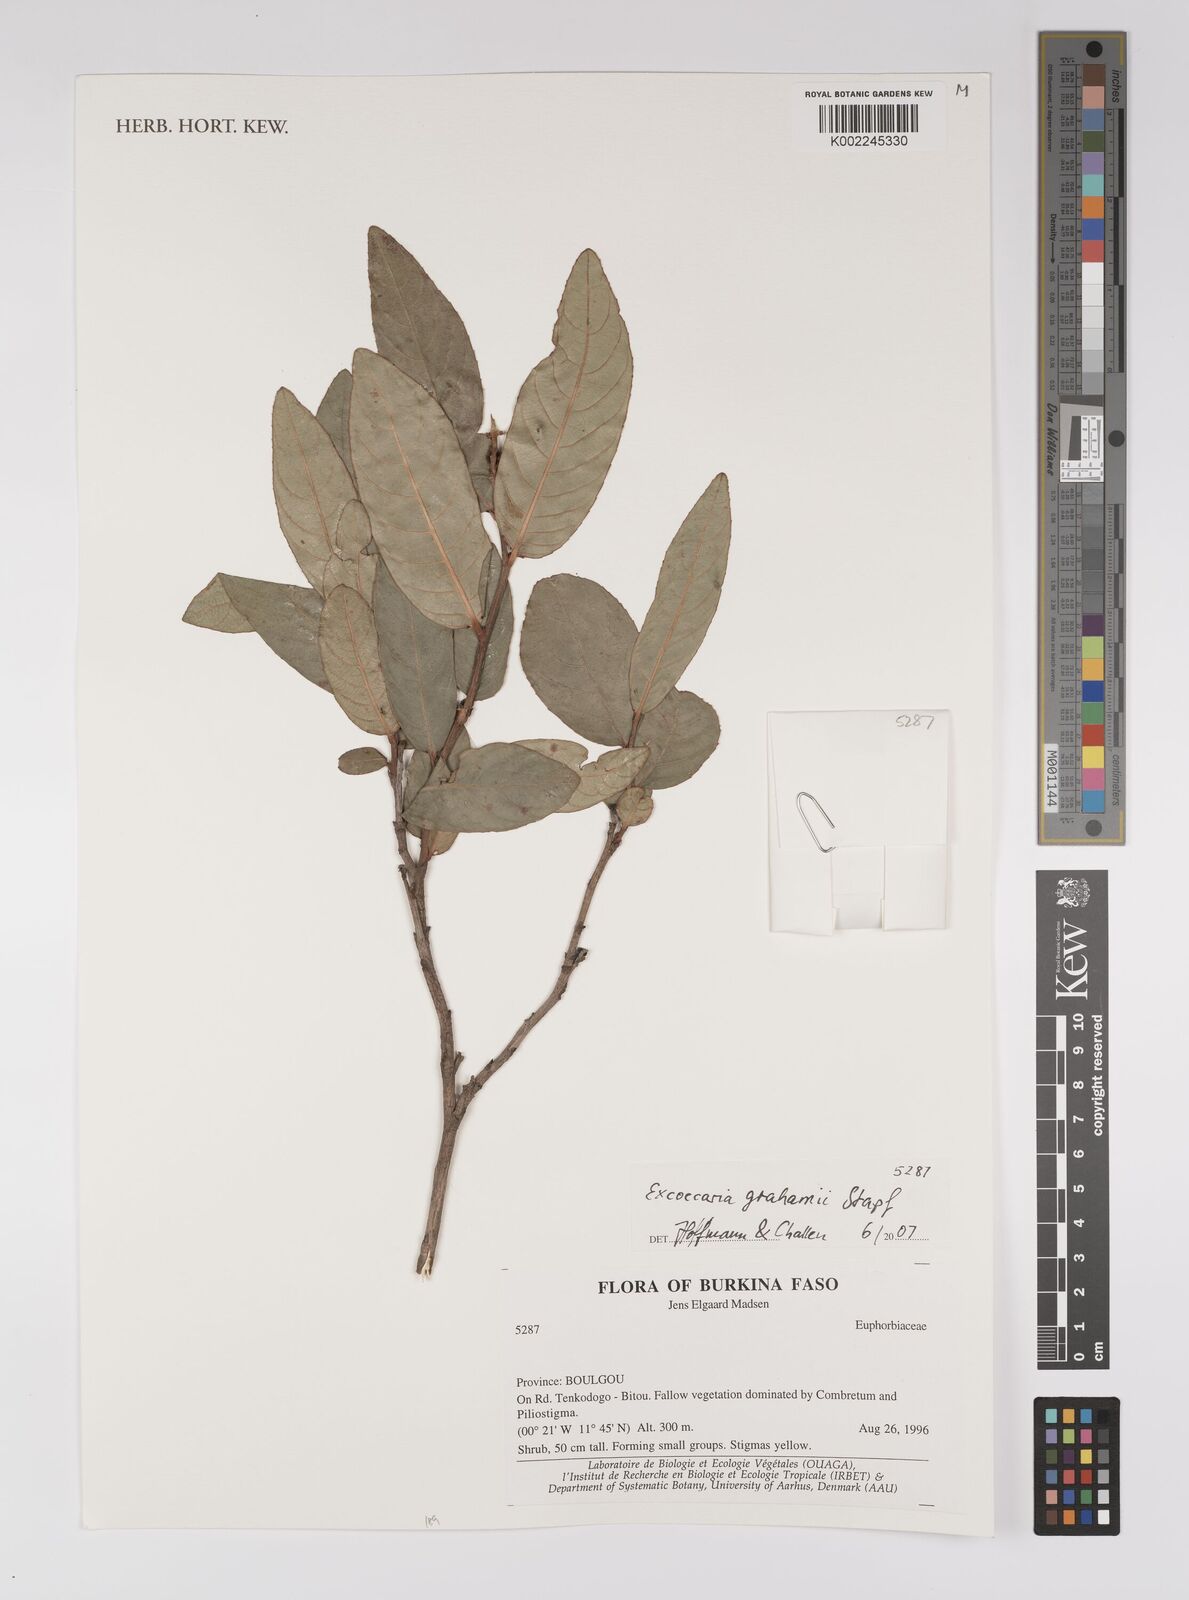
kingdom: Plantae
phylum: Tracheophyta
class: Magnoliopsida
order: Malpighiales
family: Euphorbiaceae
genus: Excoecaria
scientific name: Excoecaria grahamii
